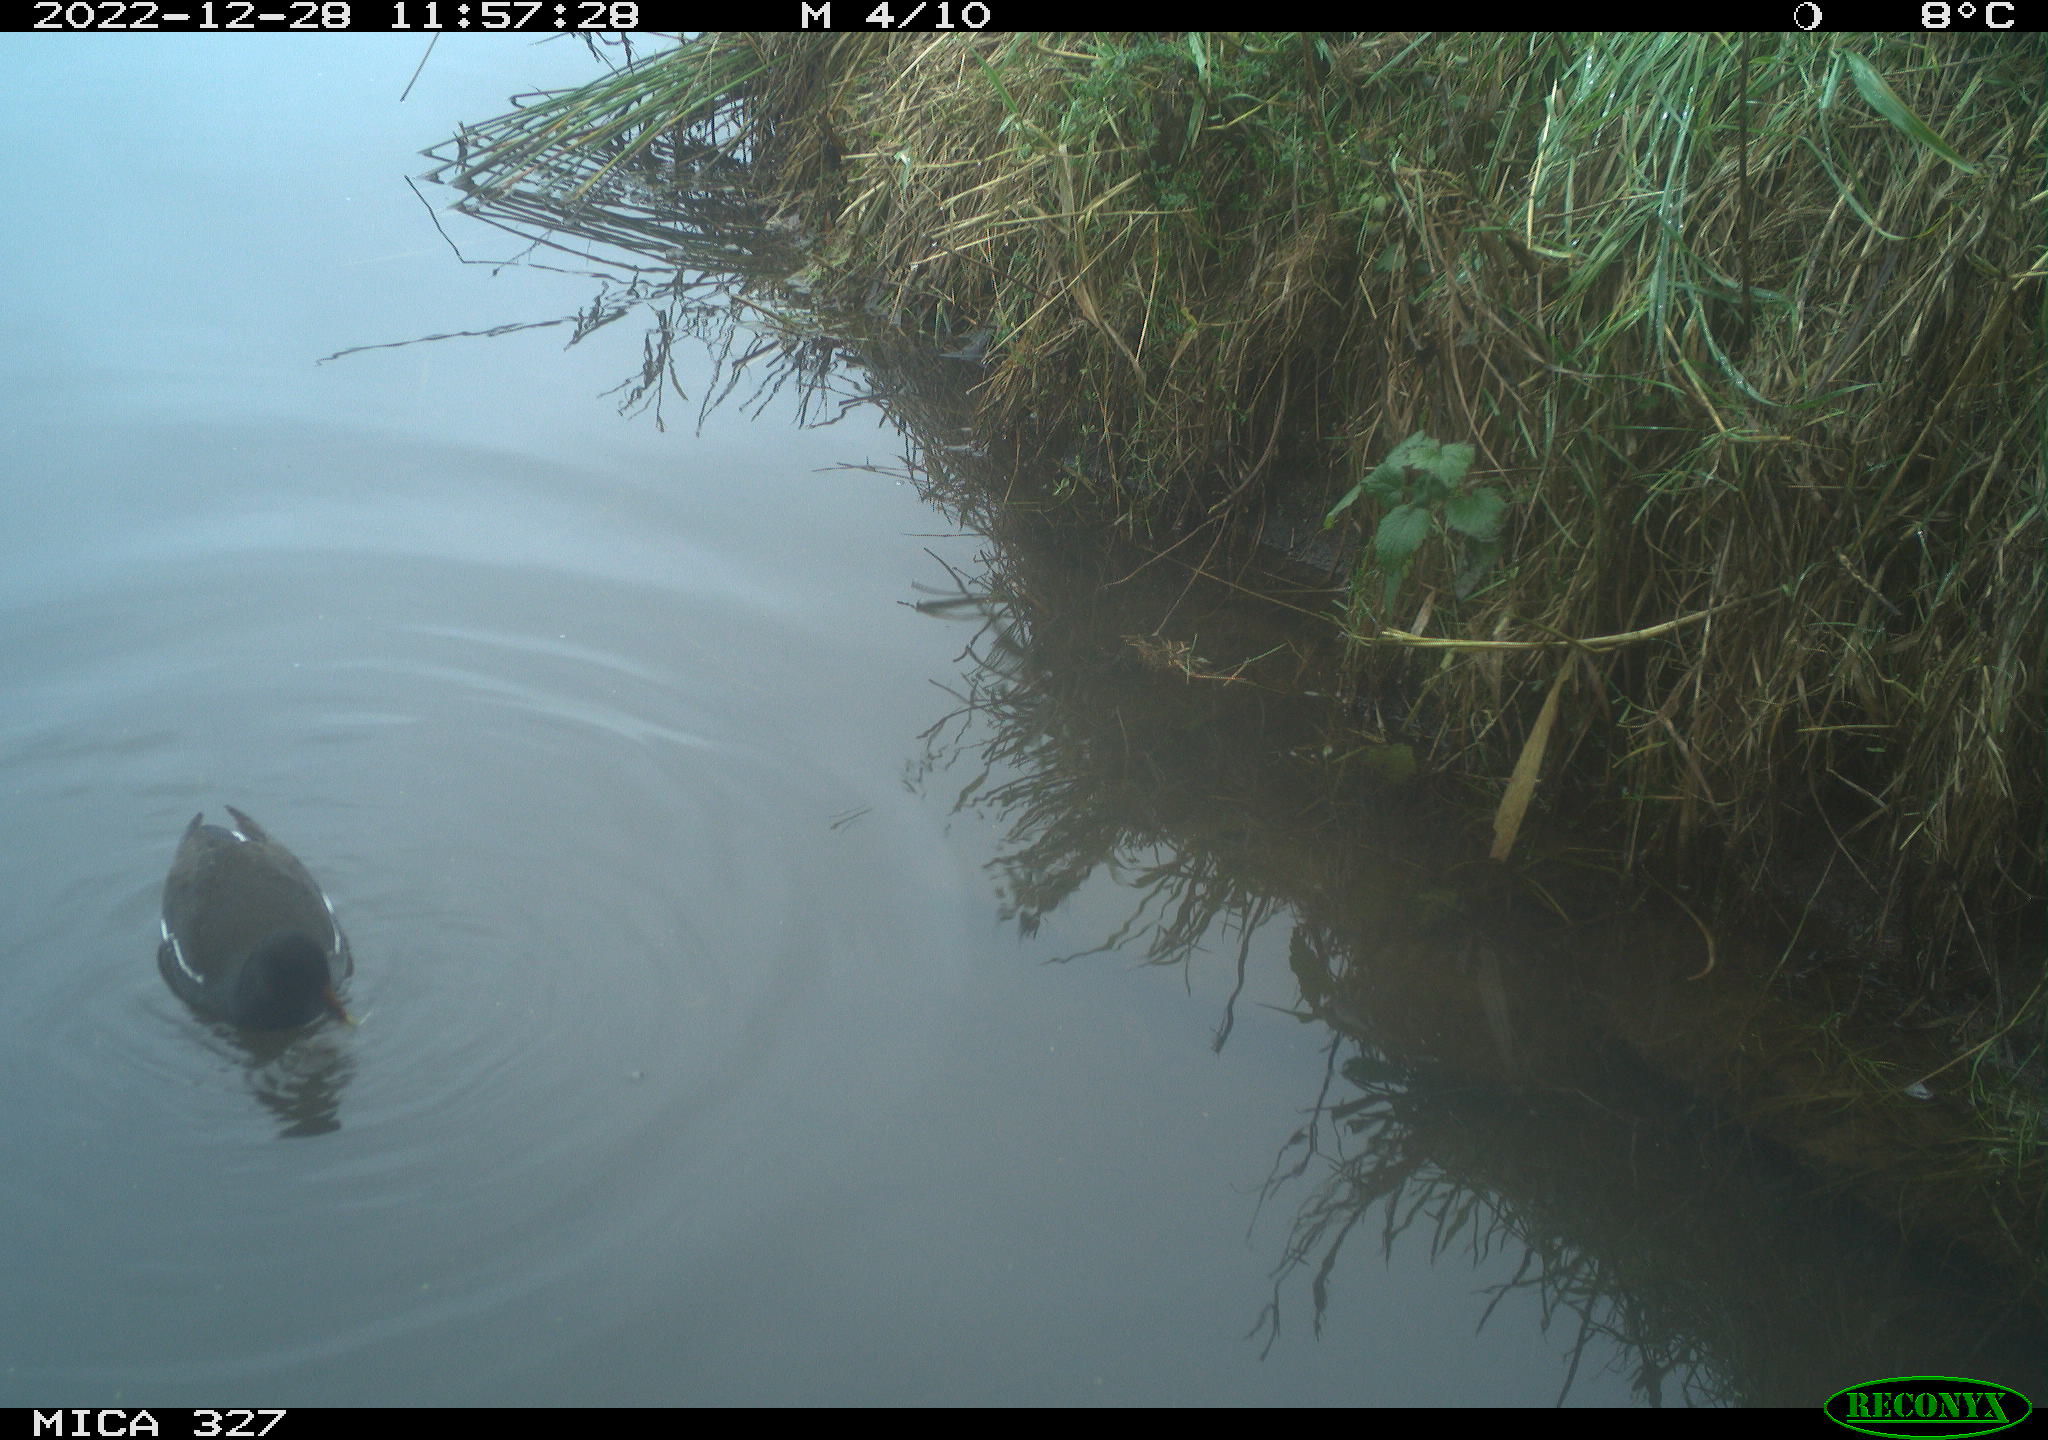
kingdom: Animalia
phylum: Chordata
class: Aves
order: Gruiformes
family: Rallidae
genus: Gallinula
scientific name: Gallinula chloropus
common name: Common moorhen
